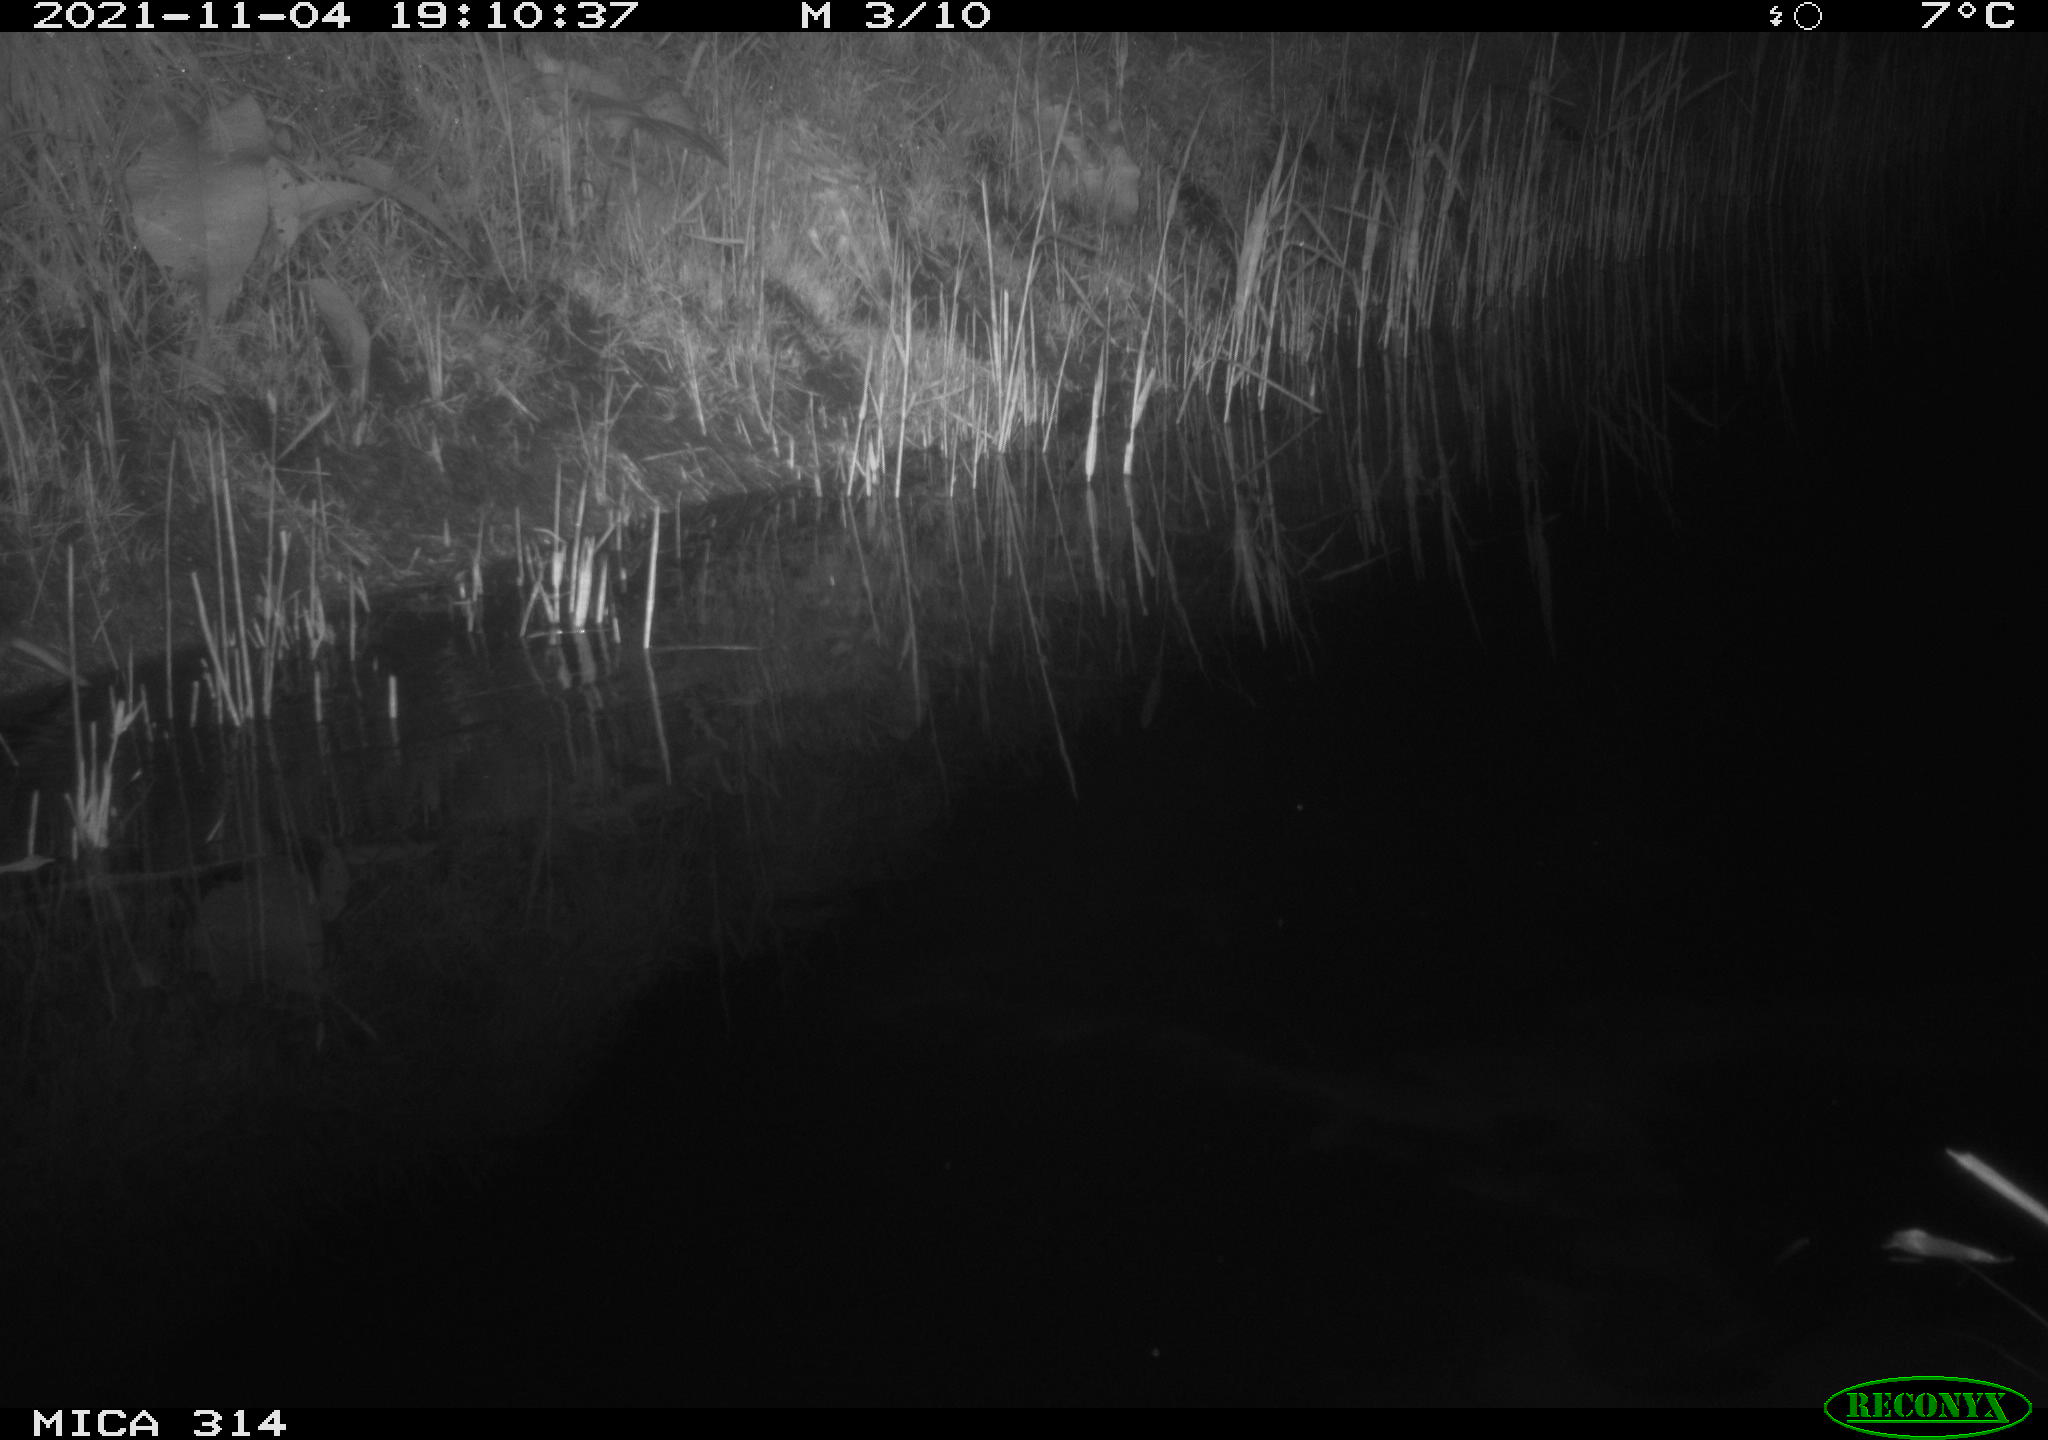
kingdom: Animalia
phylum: Chordata
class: Mammalia
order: Rodentia
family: Muridae
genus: Rattus
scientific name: Rattus norvegicus
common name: Brown rat
